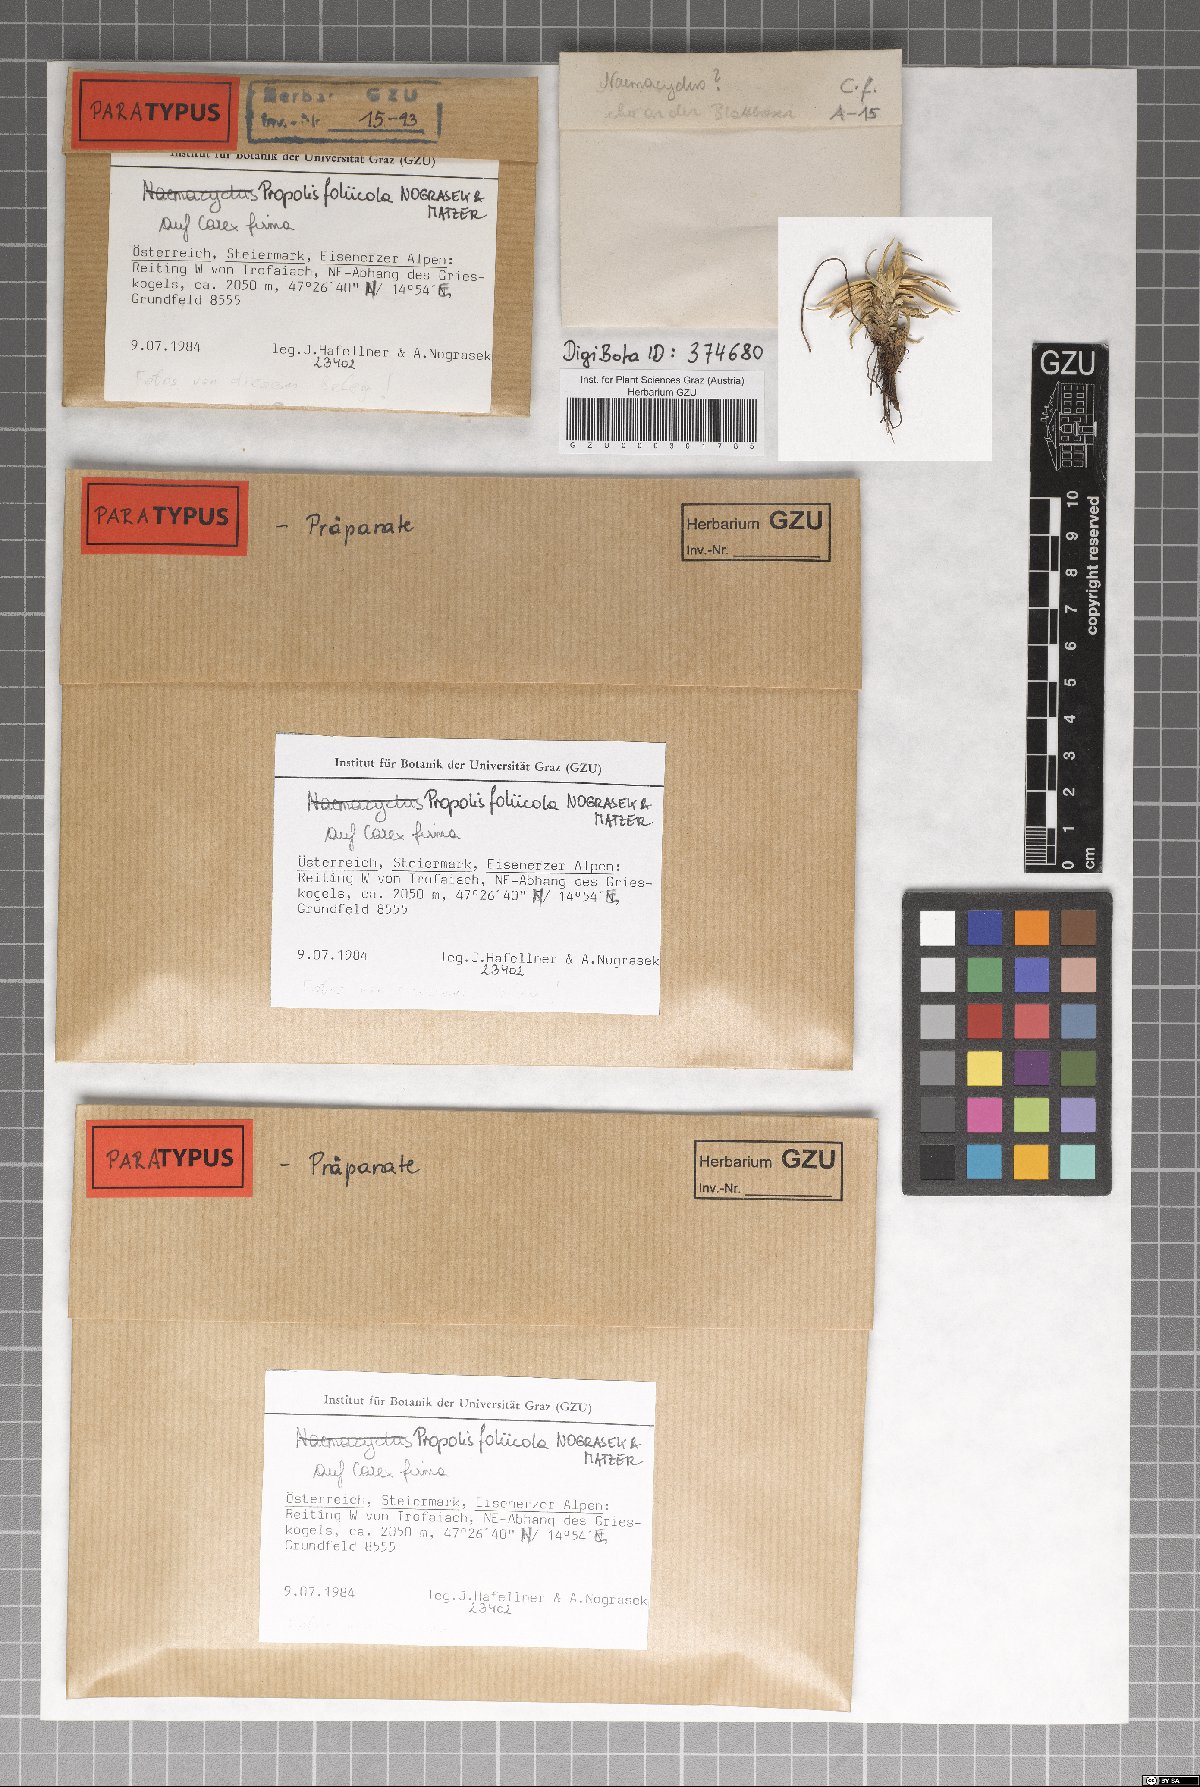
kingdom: Fungi
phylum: Ascomycota
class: Leotiomycetes
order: Chaetomellales
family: Marthamycetaceae
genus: Marthamyces
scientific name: Marthamyces foliicola
